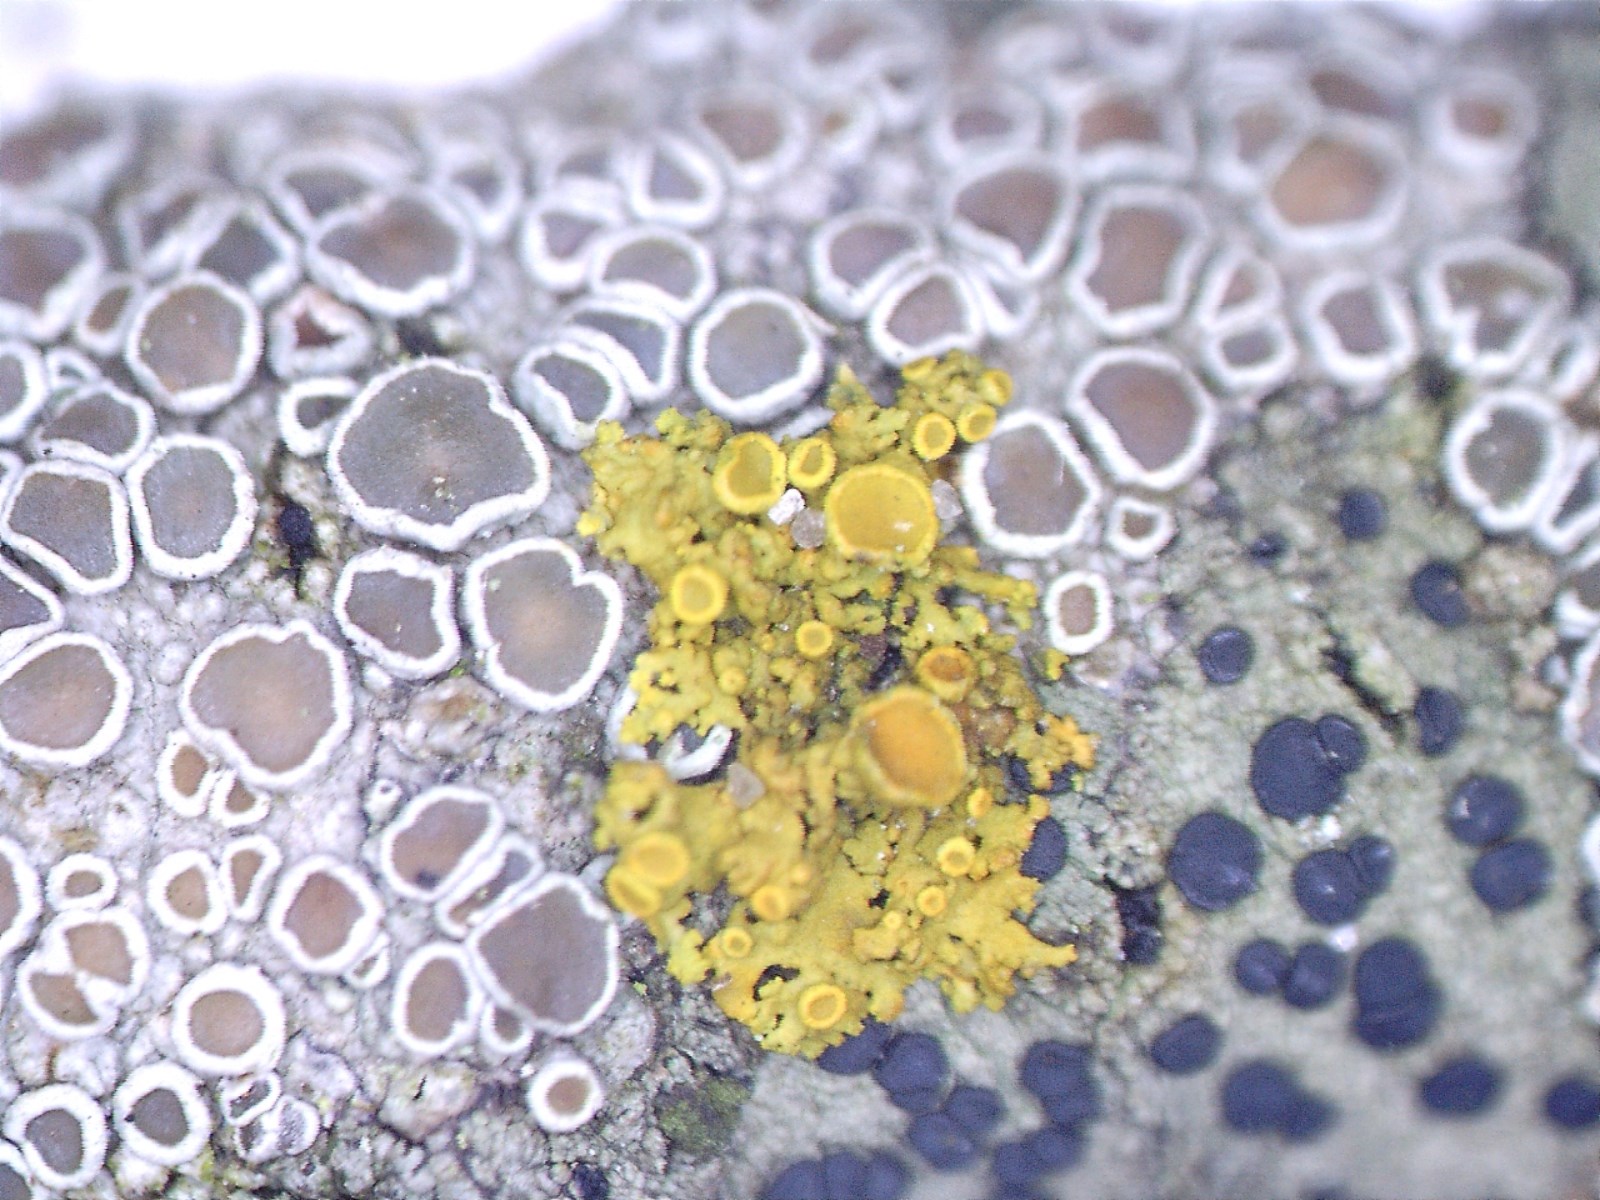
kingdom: Fungi
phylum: Ascomycota
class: Lecanoromycetes
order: Teloschistales
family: Teloschistaceae
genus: Polycauliona
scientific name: Polycauliona polycarpa
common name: mangefrugtet orangelav
